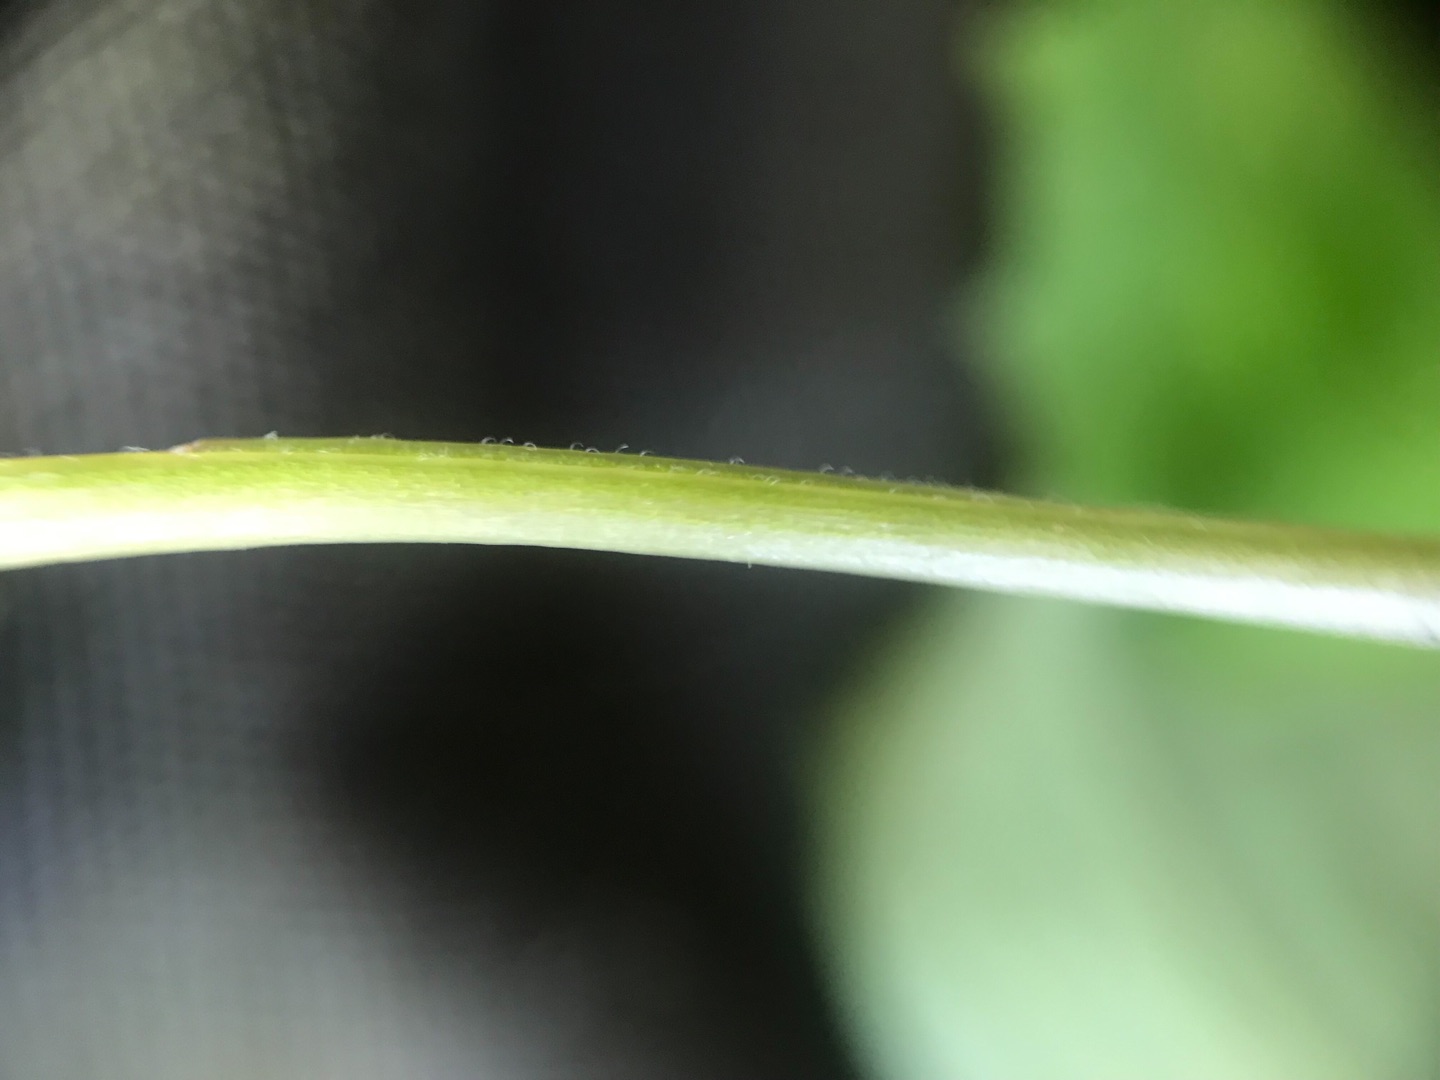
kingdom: Plantae
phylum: Tracheophyta
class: Magnoliopsida
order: Myrtales
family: Onagraceae
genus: Circaea
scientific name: Circaea intermedia
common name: Spidsbladet steffensurt
